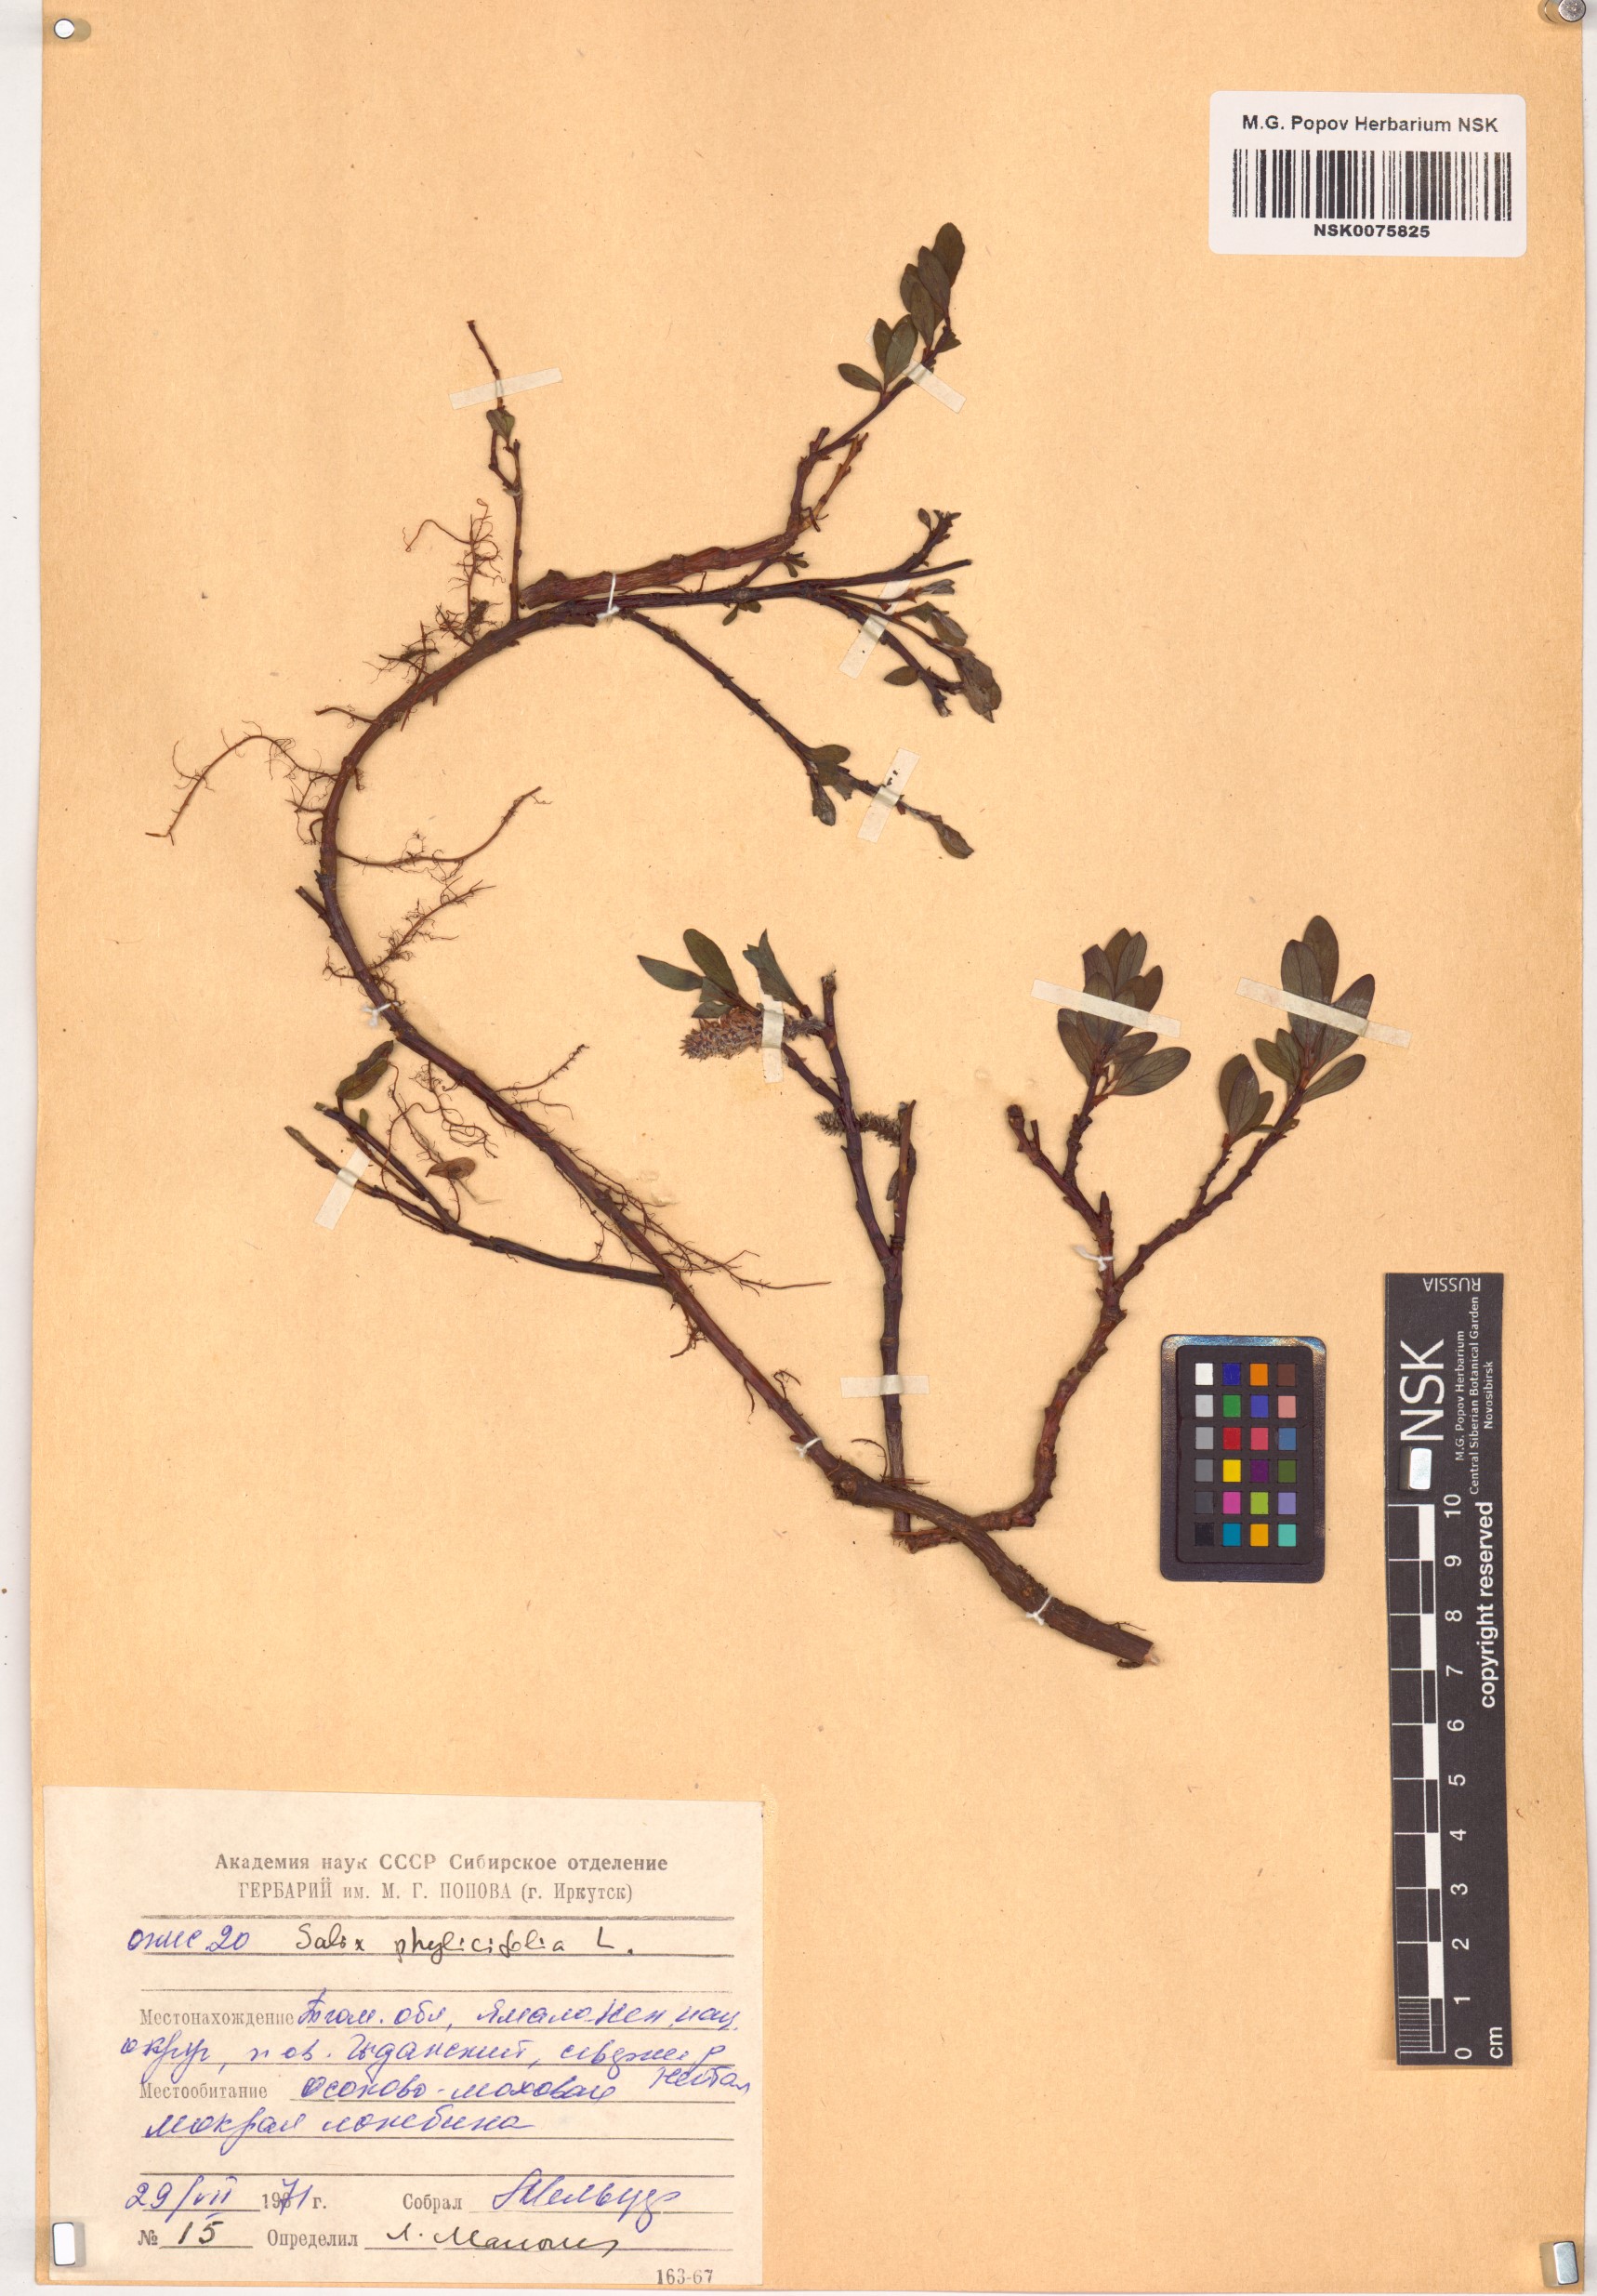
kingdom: Plantae
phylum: Tracheophyta
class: Magnoliopsida
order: Malpighiales
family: Salicaceae
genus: Salix
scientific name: Salix phylicifolia
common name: Tea-leaved willow
